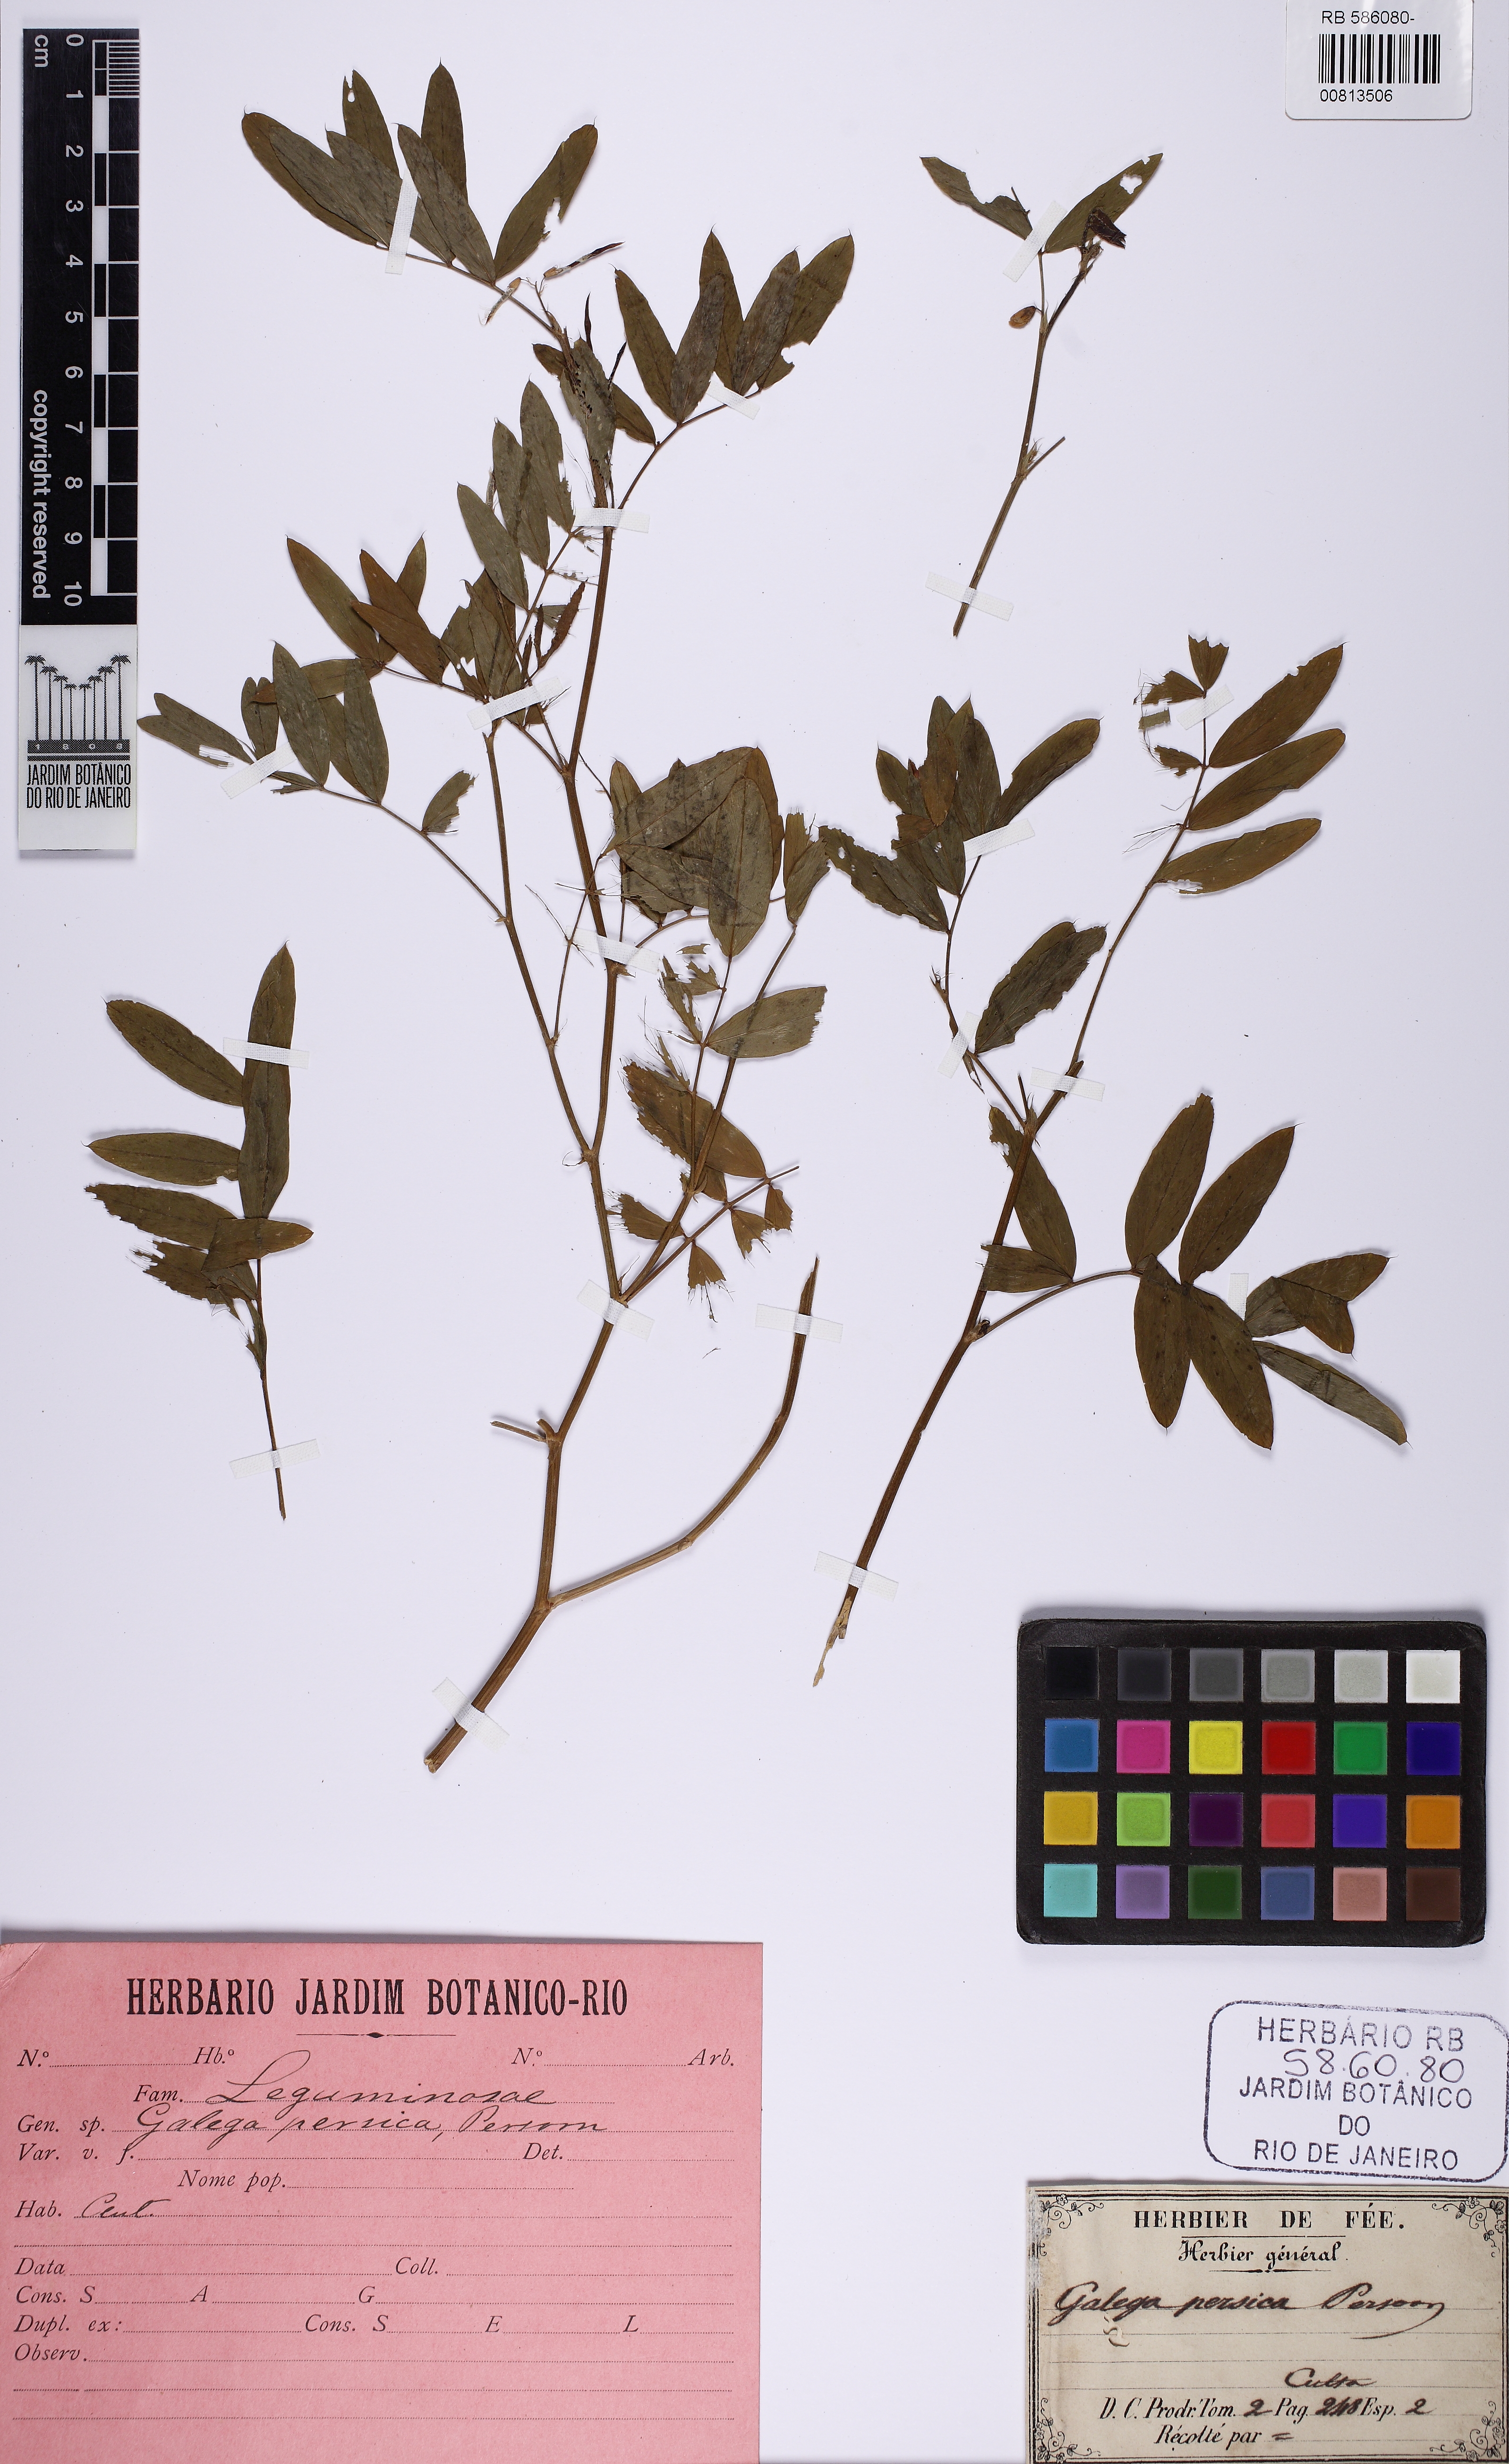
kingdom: Plantae
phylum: Tracheophyta
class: Magnoliopsida
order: Fabales
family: Fabaceae
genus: Galega
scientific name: Galega officinalis
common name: Goat's-rue
